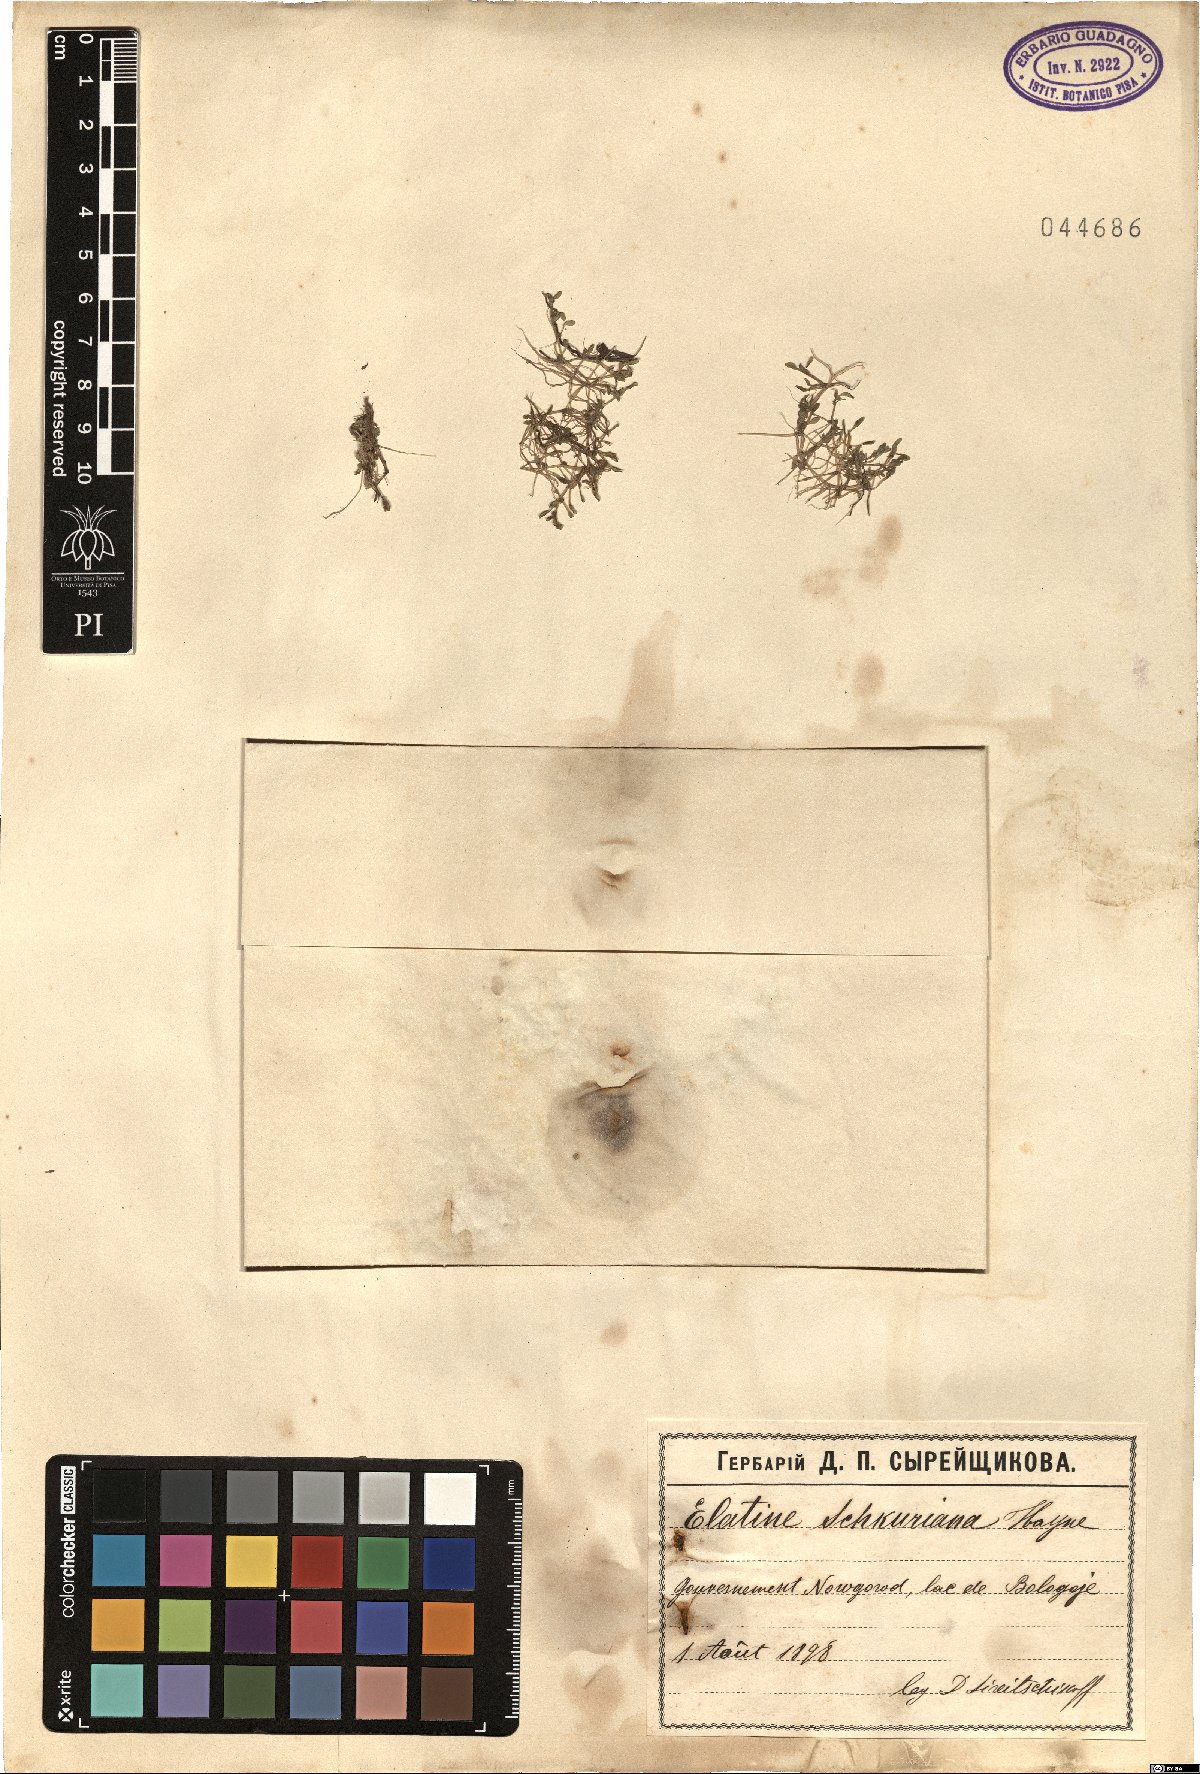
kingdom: Plantae
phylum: Tracheophyta
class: Magnoliopsida
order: Malpighiales
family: Elatinaceae
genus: Elatine
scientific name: Elatine schkuhriana
